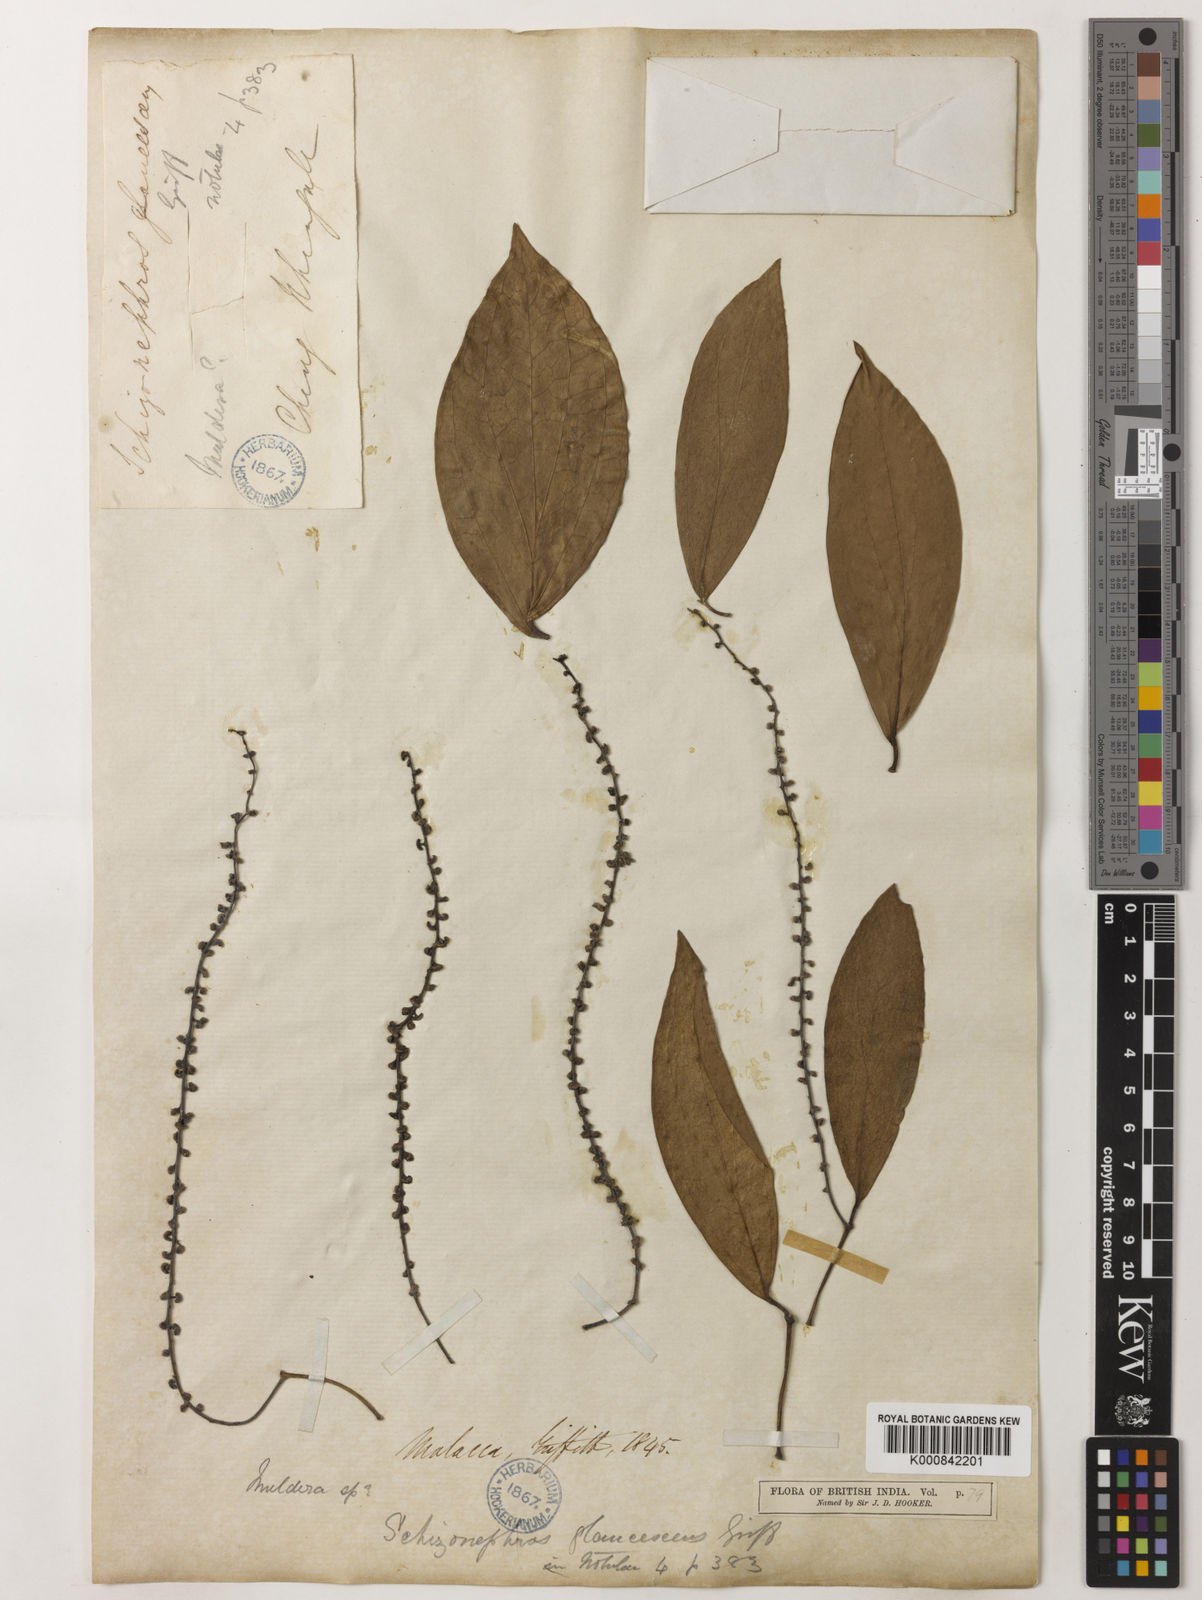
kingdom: Plantae
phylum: Tracheophyta
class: Magnoliopsida
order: Piperales
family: Piperaceae
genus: Piper
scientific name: Piper schizonephros
